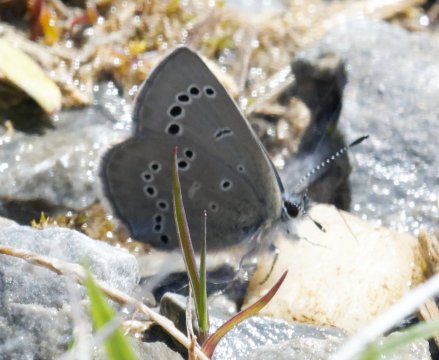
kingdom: Animalia
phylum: Arthropoda
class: Insecta
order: Lepidoptera
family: Lycaenidae
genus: Glaucopsyche
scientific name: Glaucopsyche lygdamus
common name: Silvery Blue
